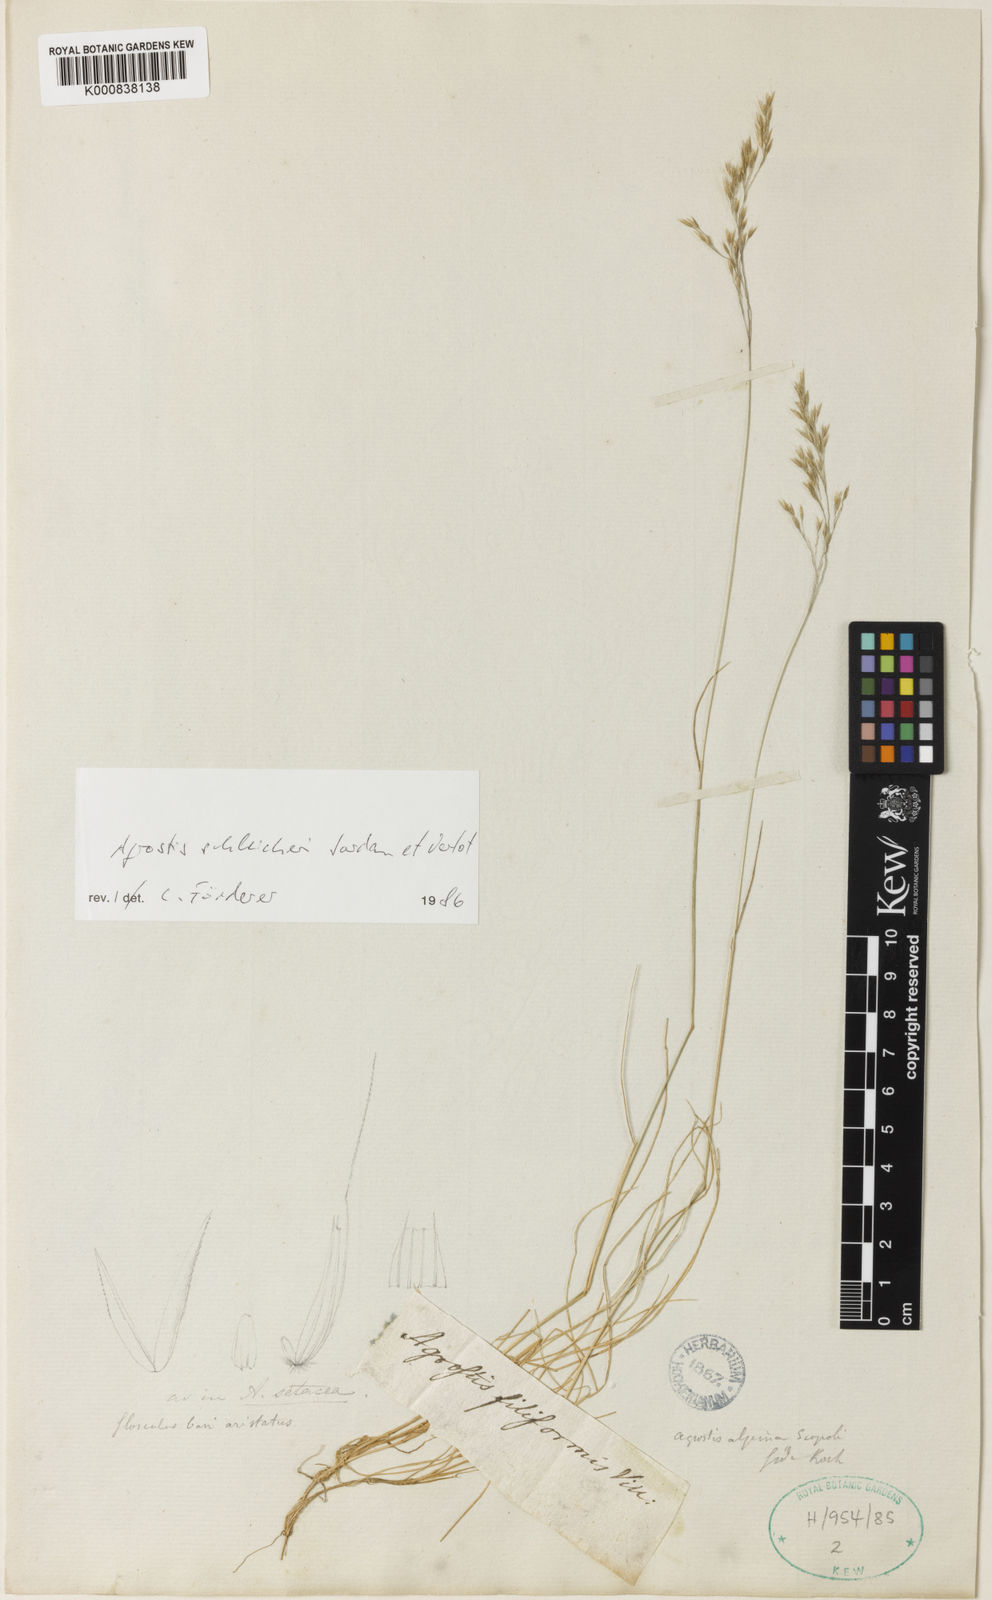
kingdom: Plantae
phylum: Tracheophyta
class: Liliopsida
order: Poales
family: Poaceae
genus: Agrostis
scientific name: Agrostis
